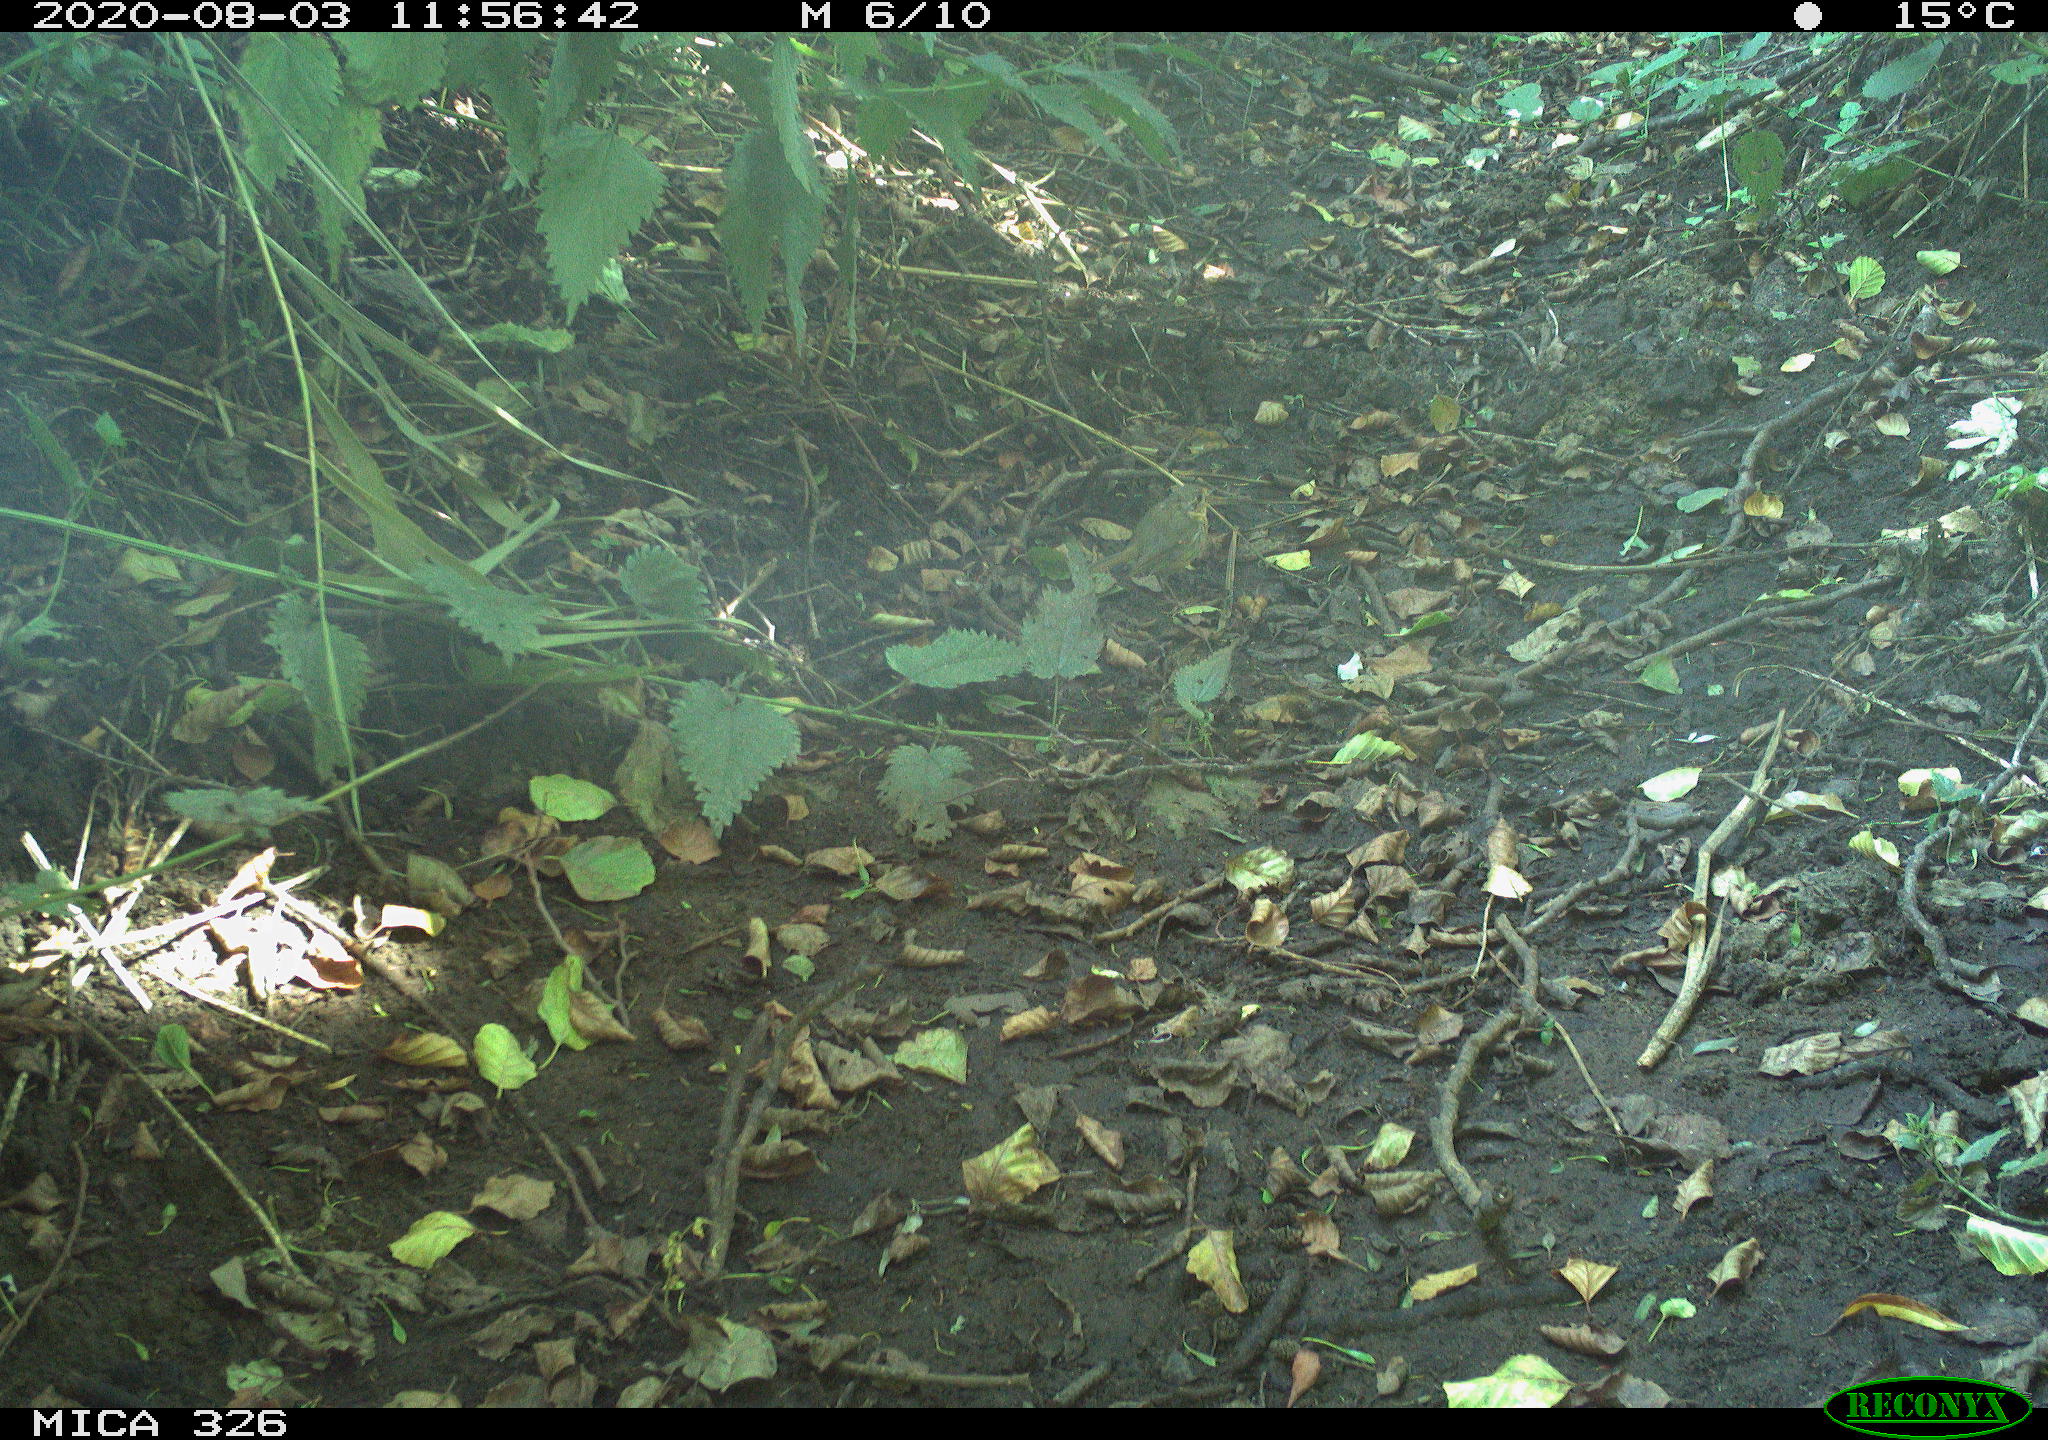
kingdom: Animalia
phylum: Chordata
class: Aves
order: Passeriformes
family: Muscicapidae
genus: Erithacus
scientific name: Erithacus rubecula
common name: European robin
